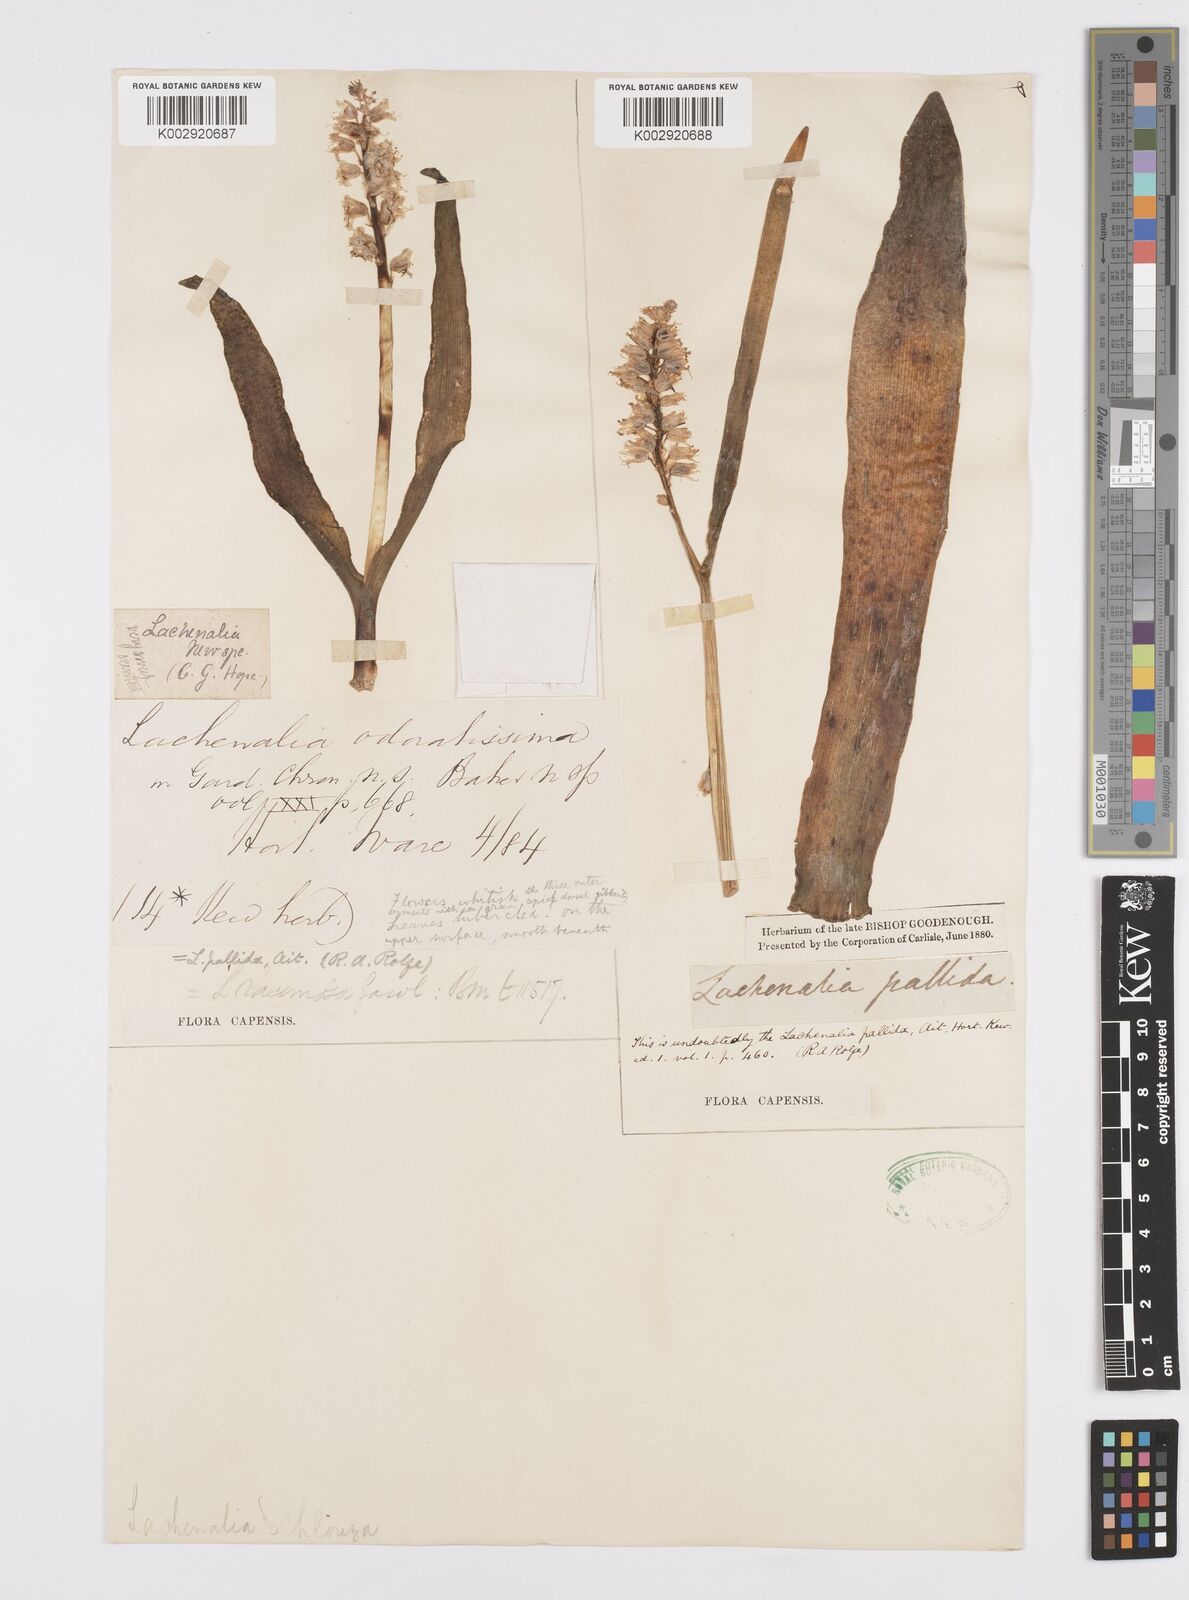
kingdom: Plantae
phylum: Tracheophyta
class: Liliopsida
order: Asparagales
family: Asparagaceae
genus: Lachenalia
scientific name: Lachenalia pallida
